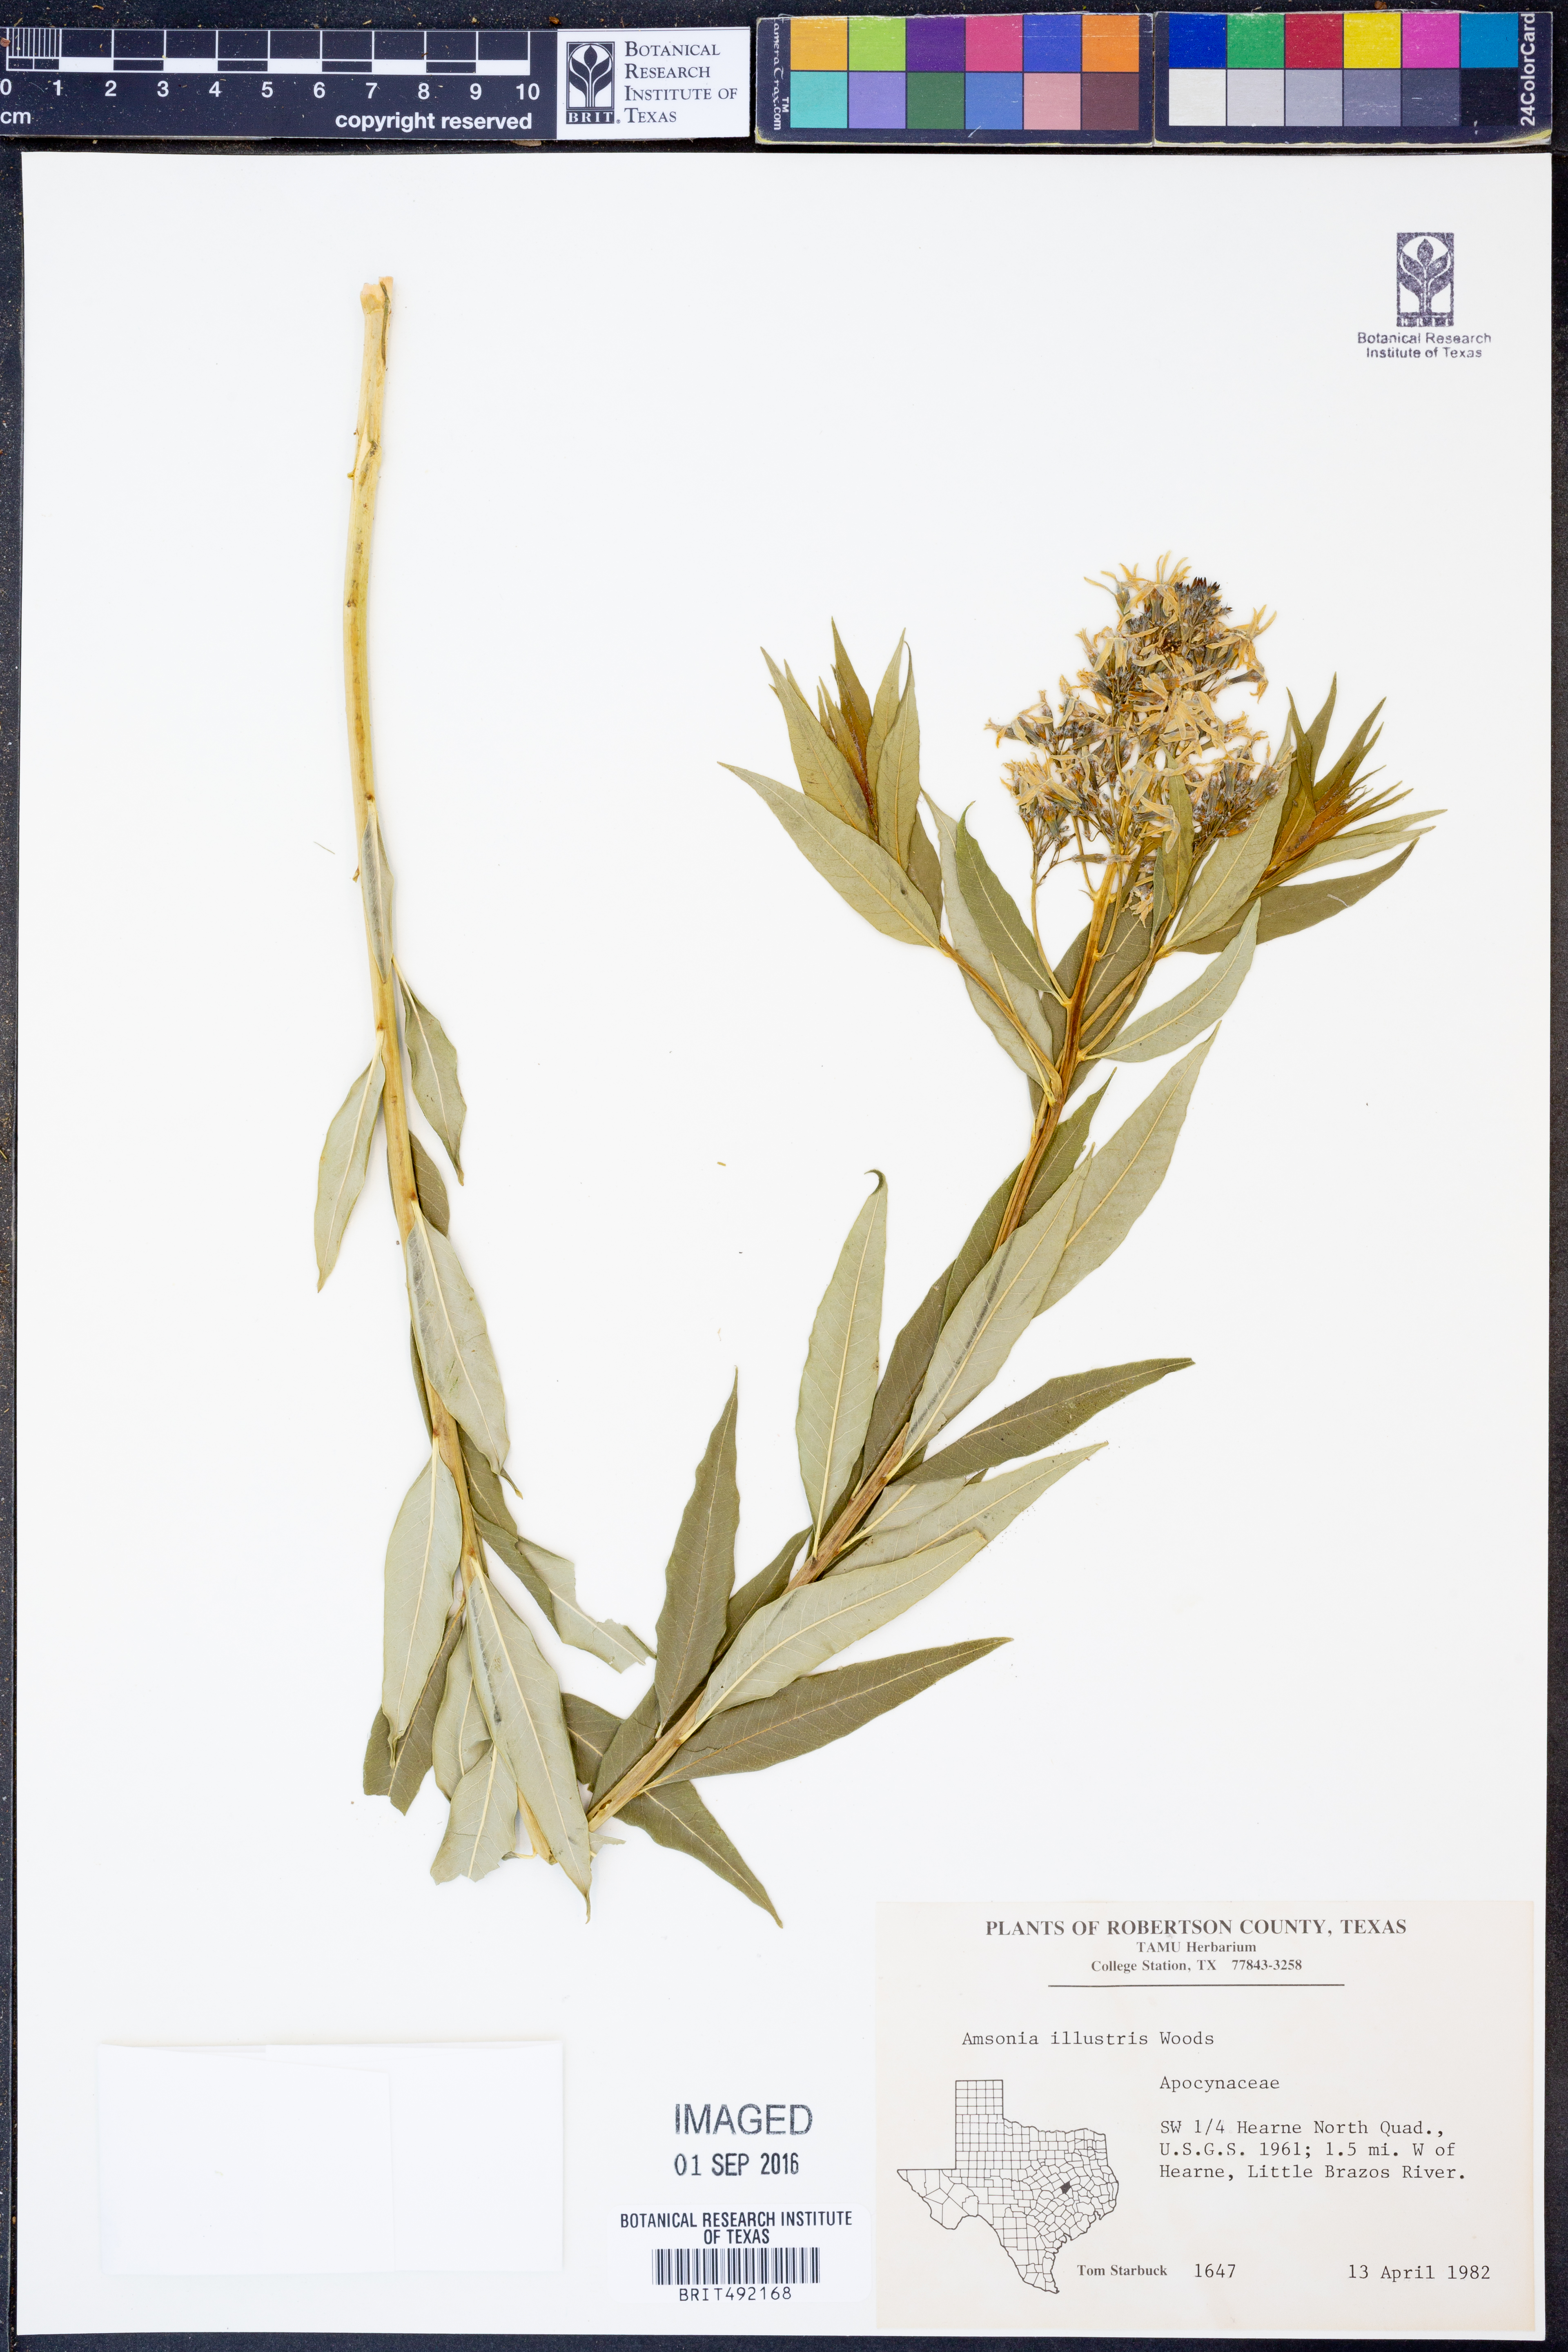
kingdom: Plantae
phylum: Tracheophyta
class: Magnoliopsida
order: Gentianales
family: Apocynaceae
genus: Amsonia
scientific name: Amsonia tabernaemontana
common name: Texas-star
